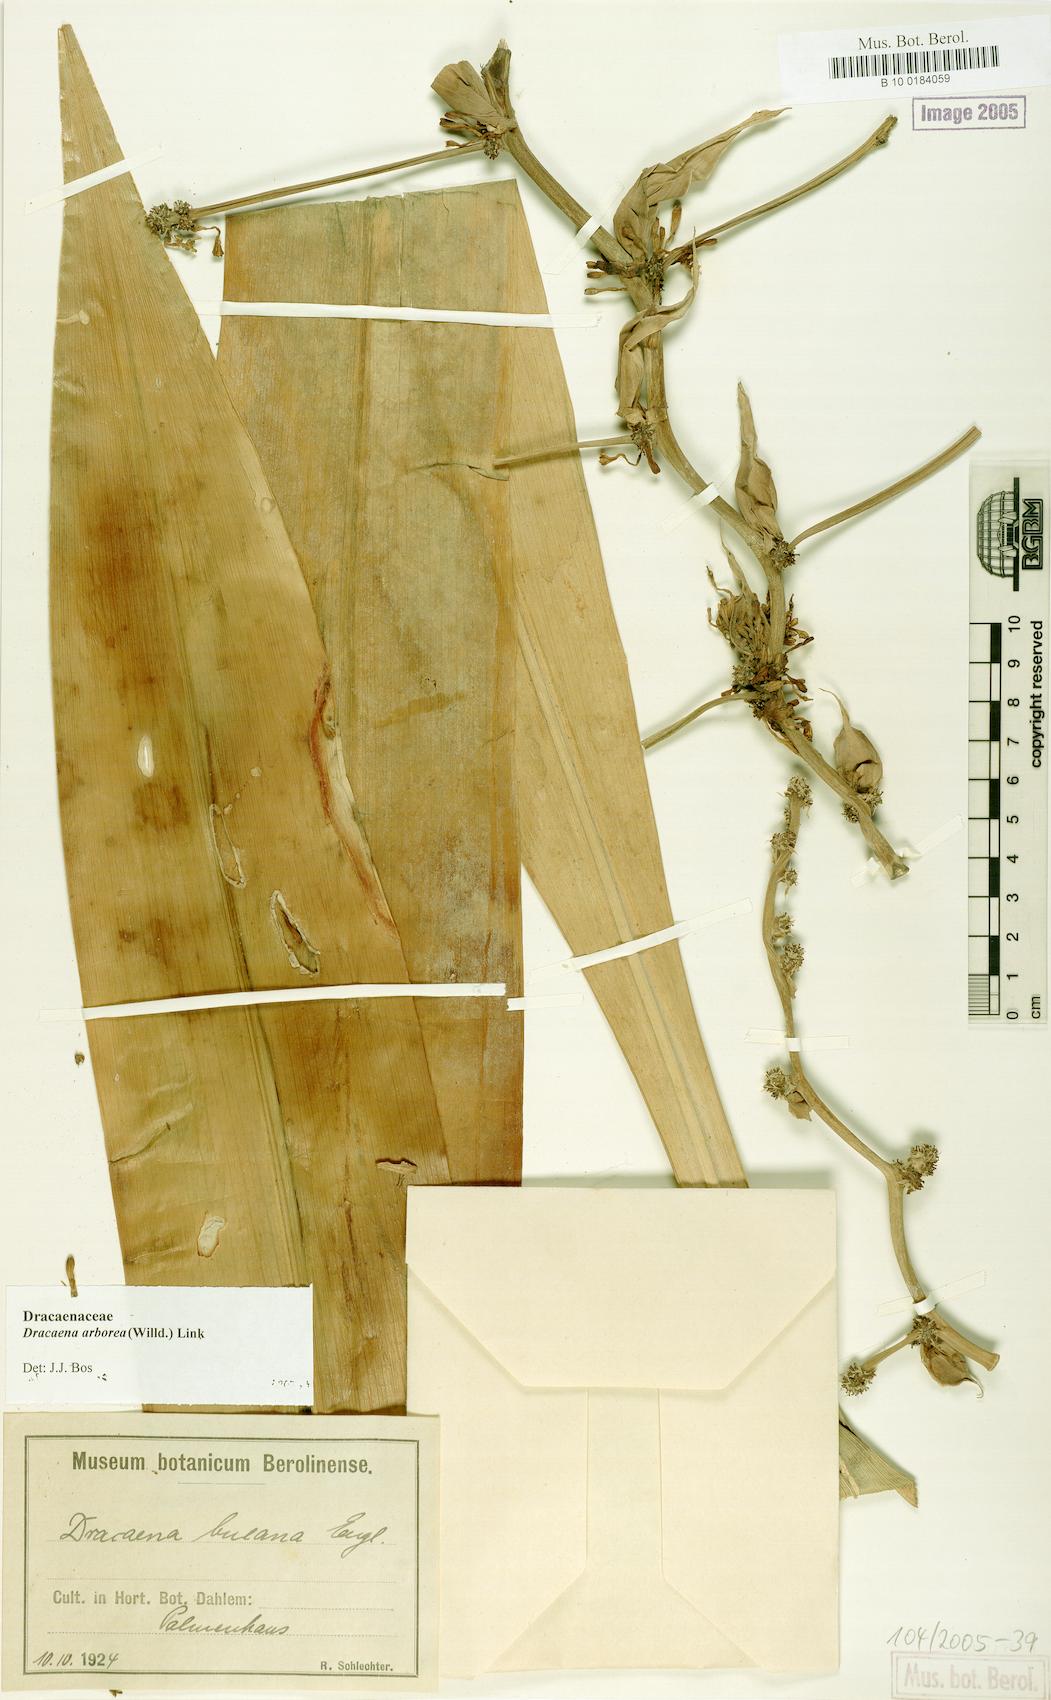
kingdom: Plantae
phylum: Tracheophyta
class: Liliopsida
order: Asparagales
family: Asparagaceae
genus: Dracaena
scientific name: Dracaena arborea
